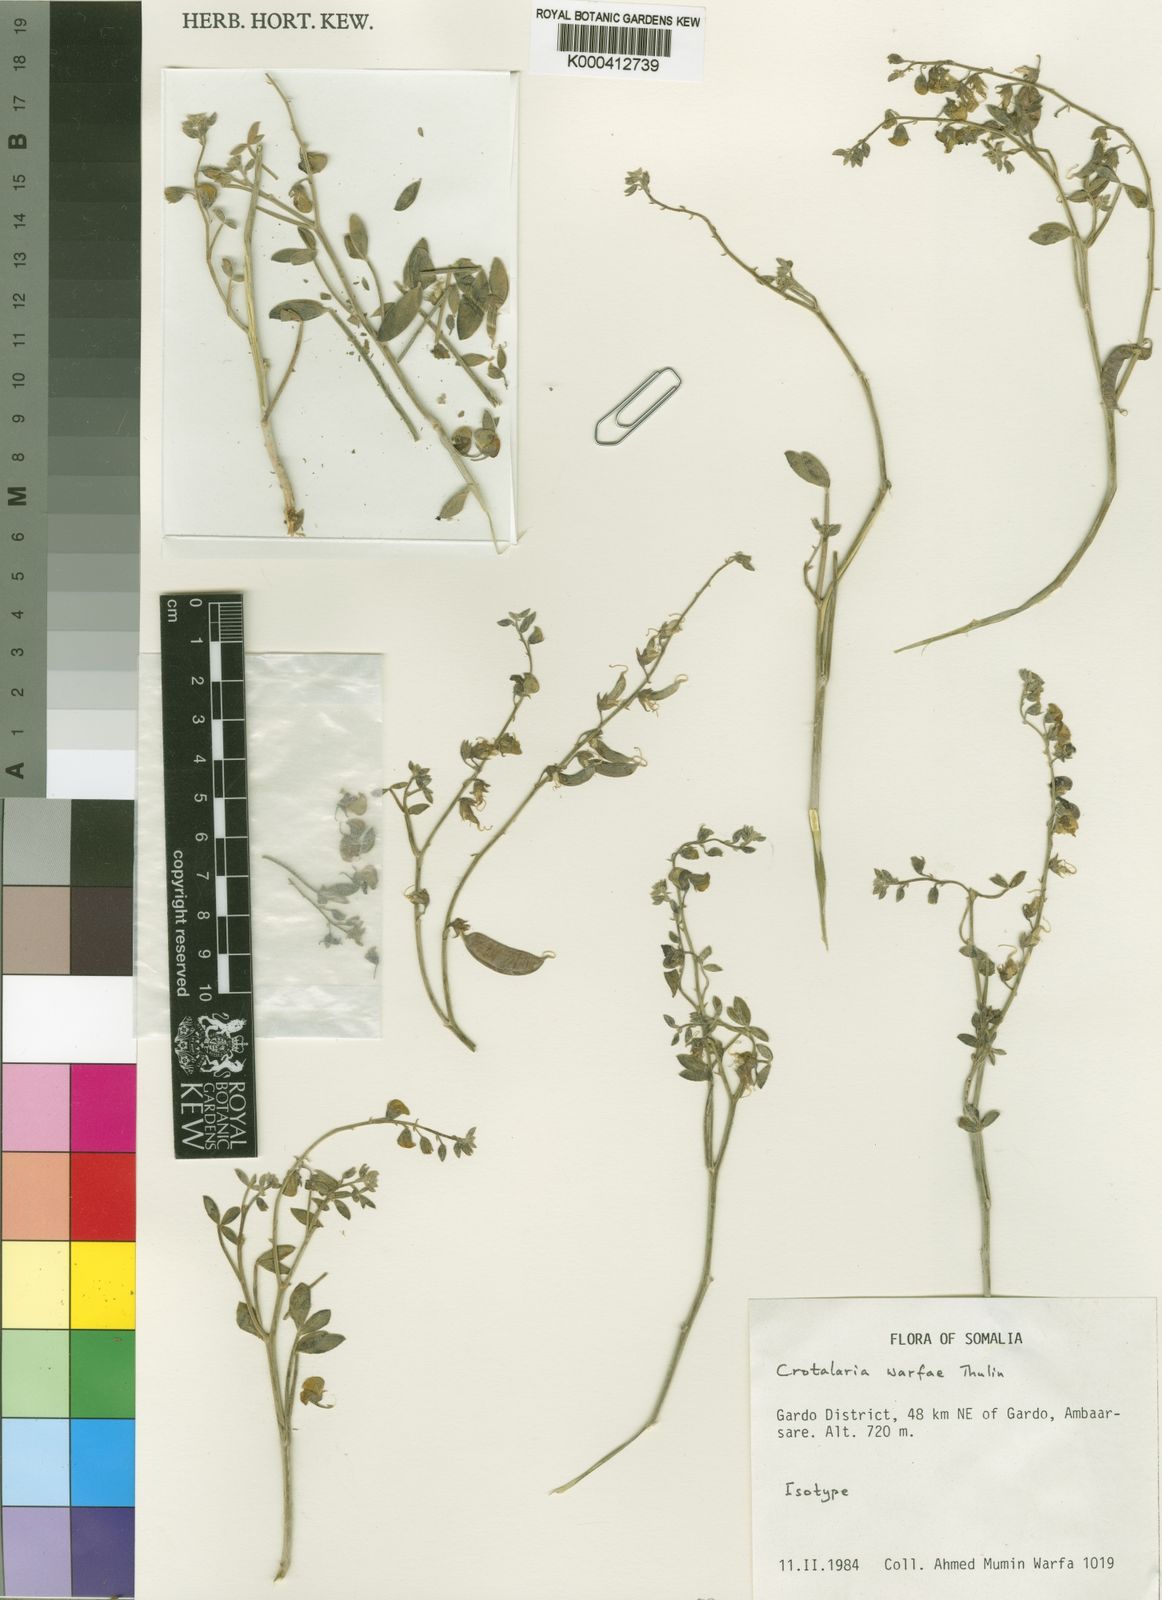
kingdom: Plantae
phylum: Tracheophyta
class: Magnoliopsida
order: Fabales
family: Fabaceae
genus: Crotalaria
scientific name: Crotalaria warfae
